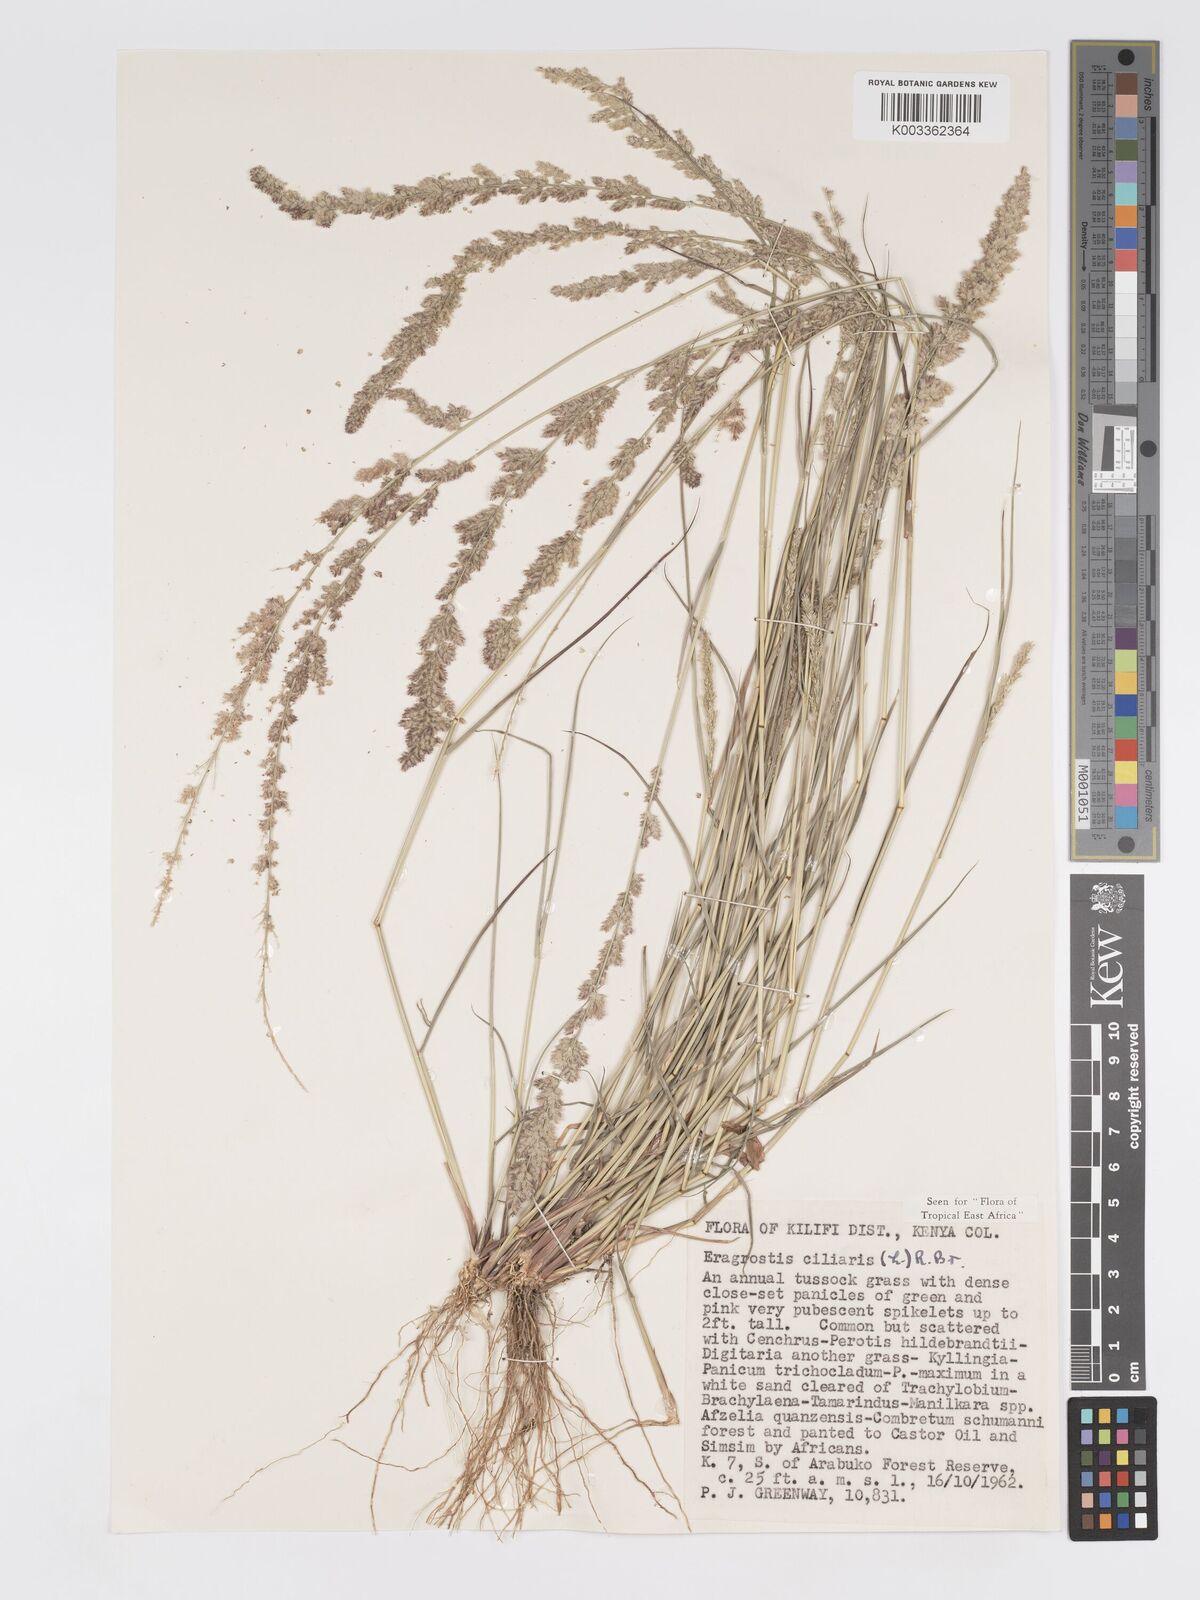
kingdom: Plantae
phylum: Tracheophyta
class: Liliopsida
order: Poales
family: Poaceae
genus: Eragrostis
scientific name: Eragrostis ciliaris
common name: Gophertail lovegrass
